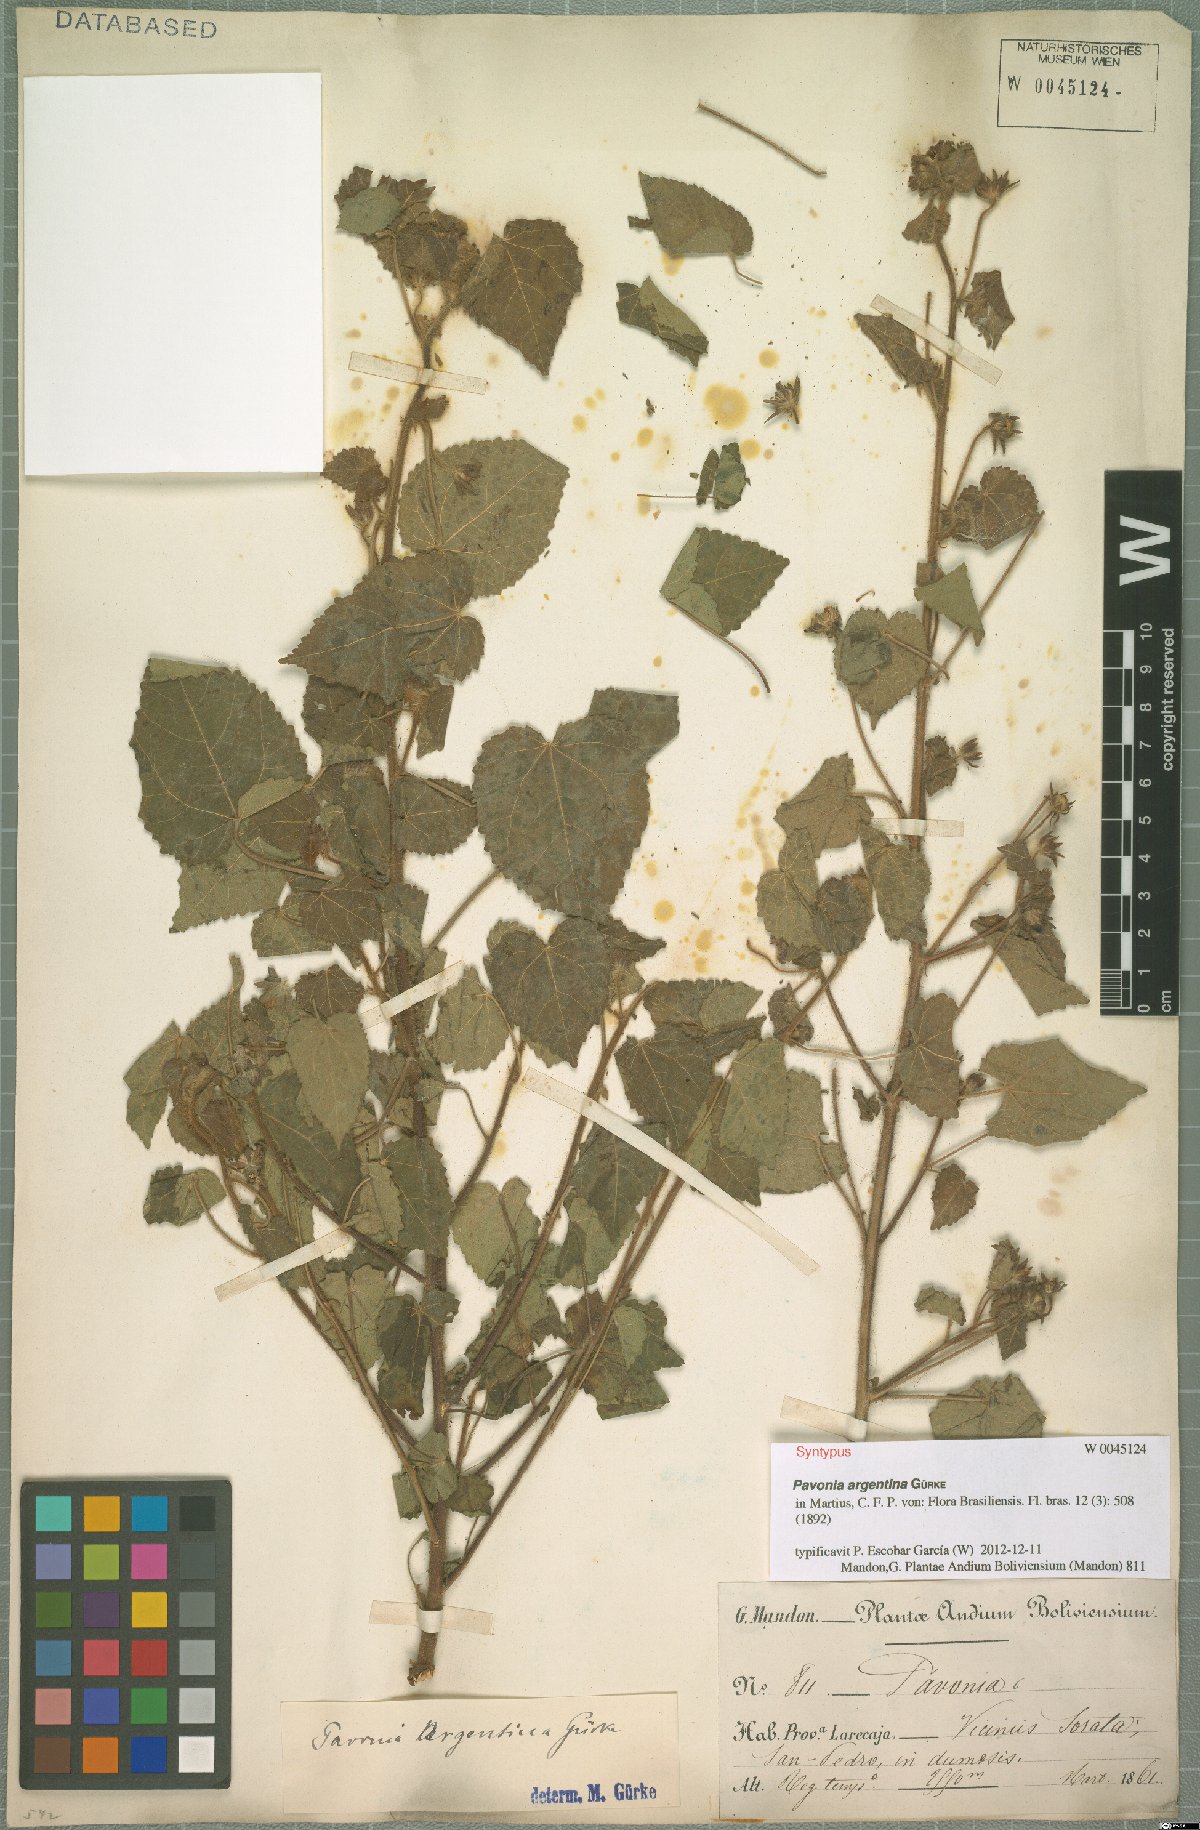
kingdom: Plantae
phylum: Tracheophyta
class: Magnoliopsida
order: Malvales
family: Malvaceae
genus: Pavonia
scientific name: Pavonia argentina
